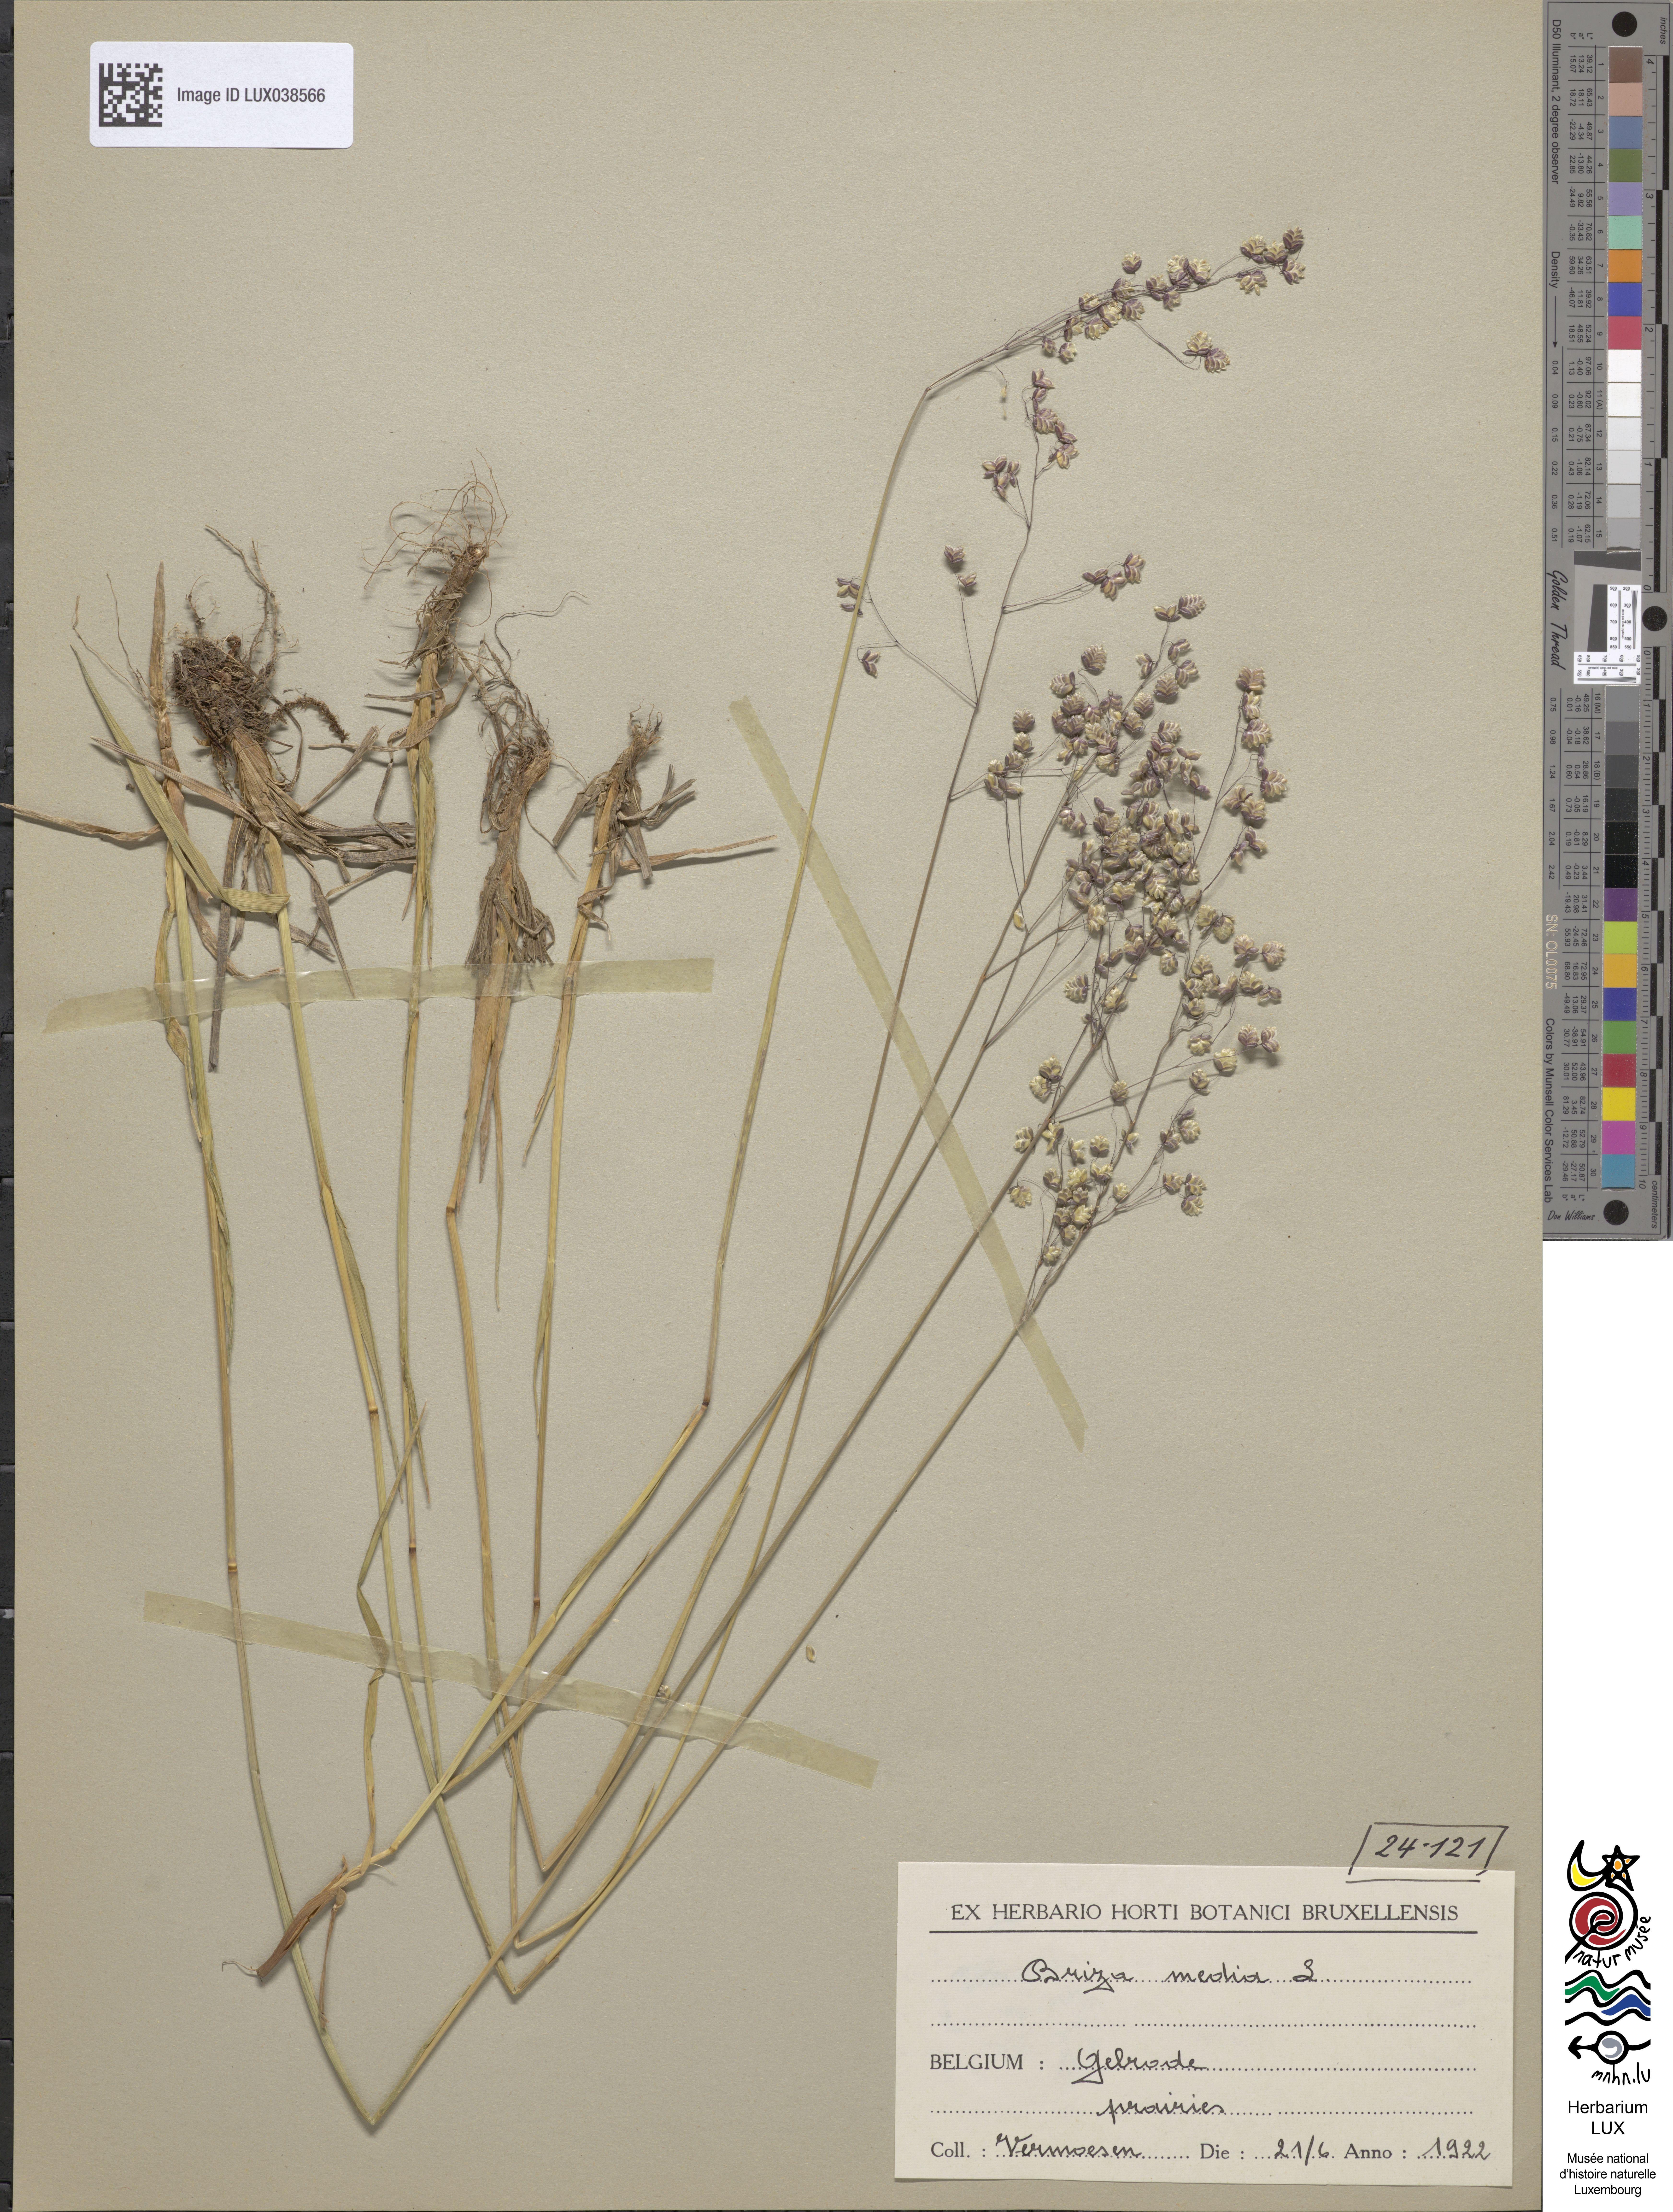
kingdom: Plantae
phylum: Tracheophyta
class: Liliopsida
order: Poales
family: Poaceae
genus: Briza
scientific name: Briza media
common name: Quaking grass
